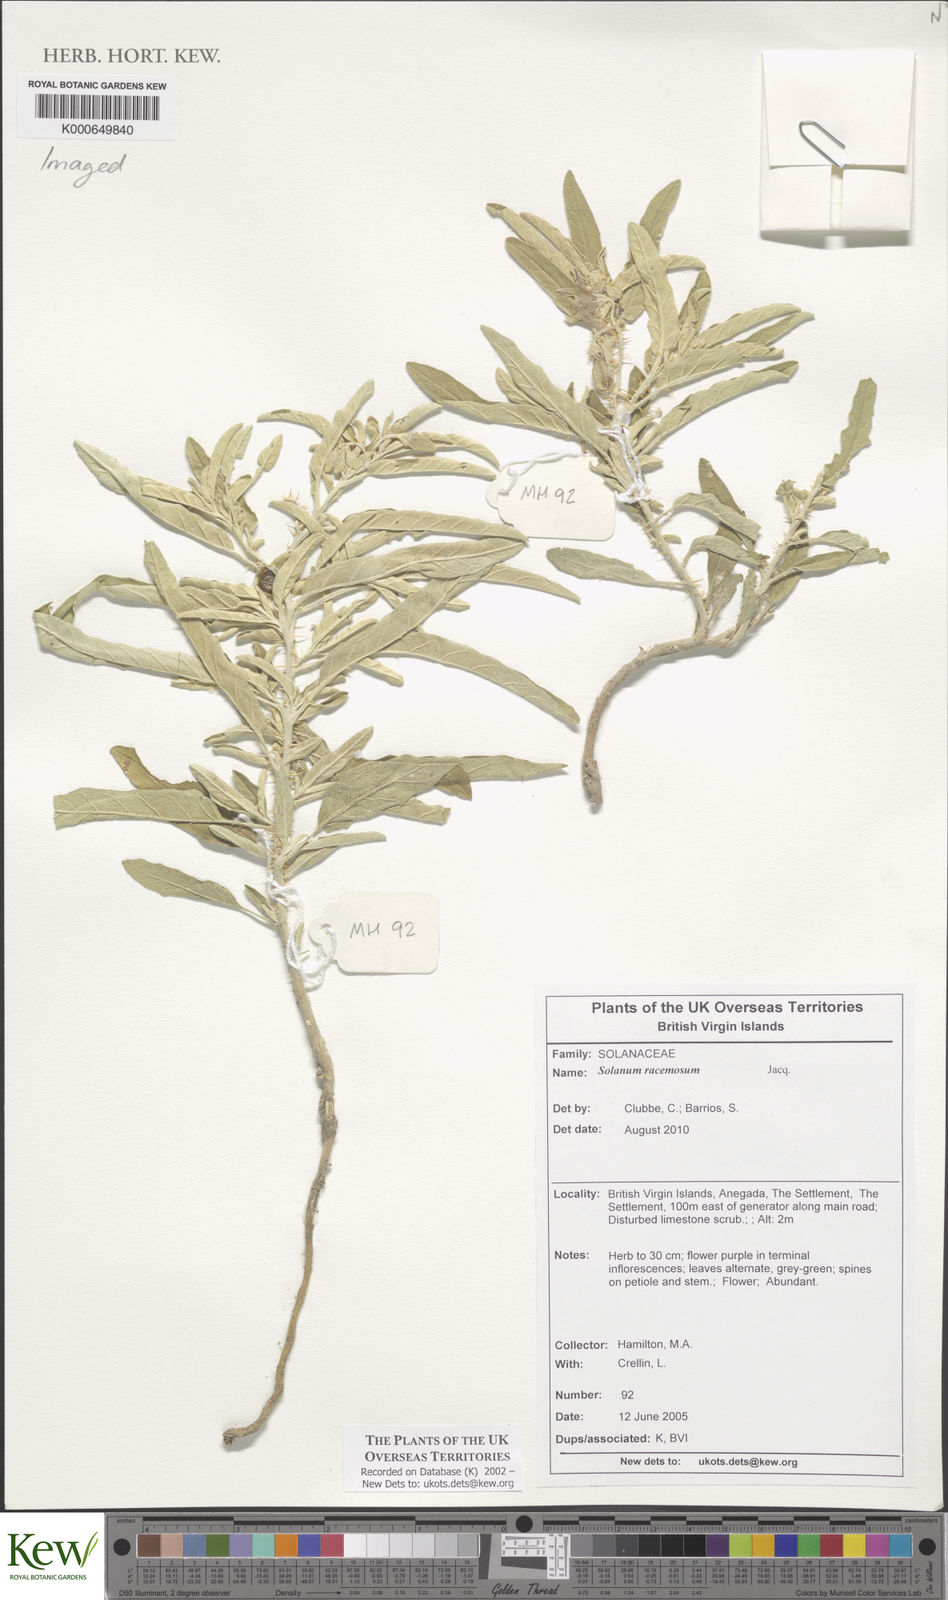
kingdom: Plantae
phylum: Tracheophyta
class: Magnoliopsida
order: Solanales
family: Solanaceae
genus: Solanum
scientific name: Solanum bahamense
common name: Canker-berry
